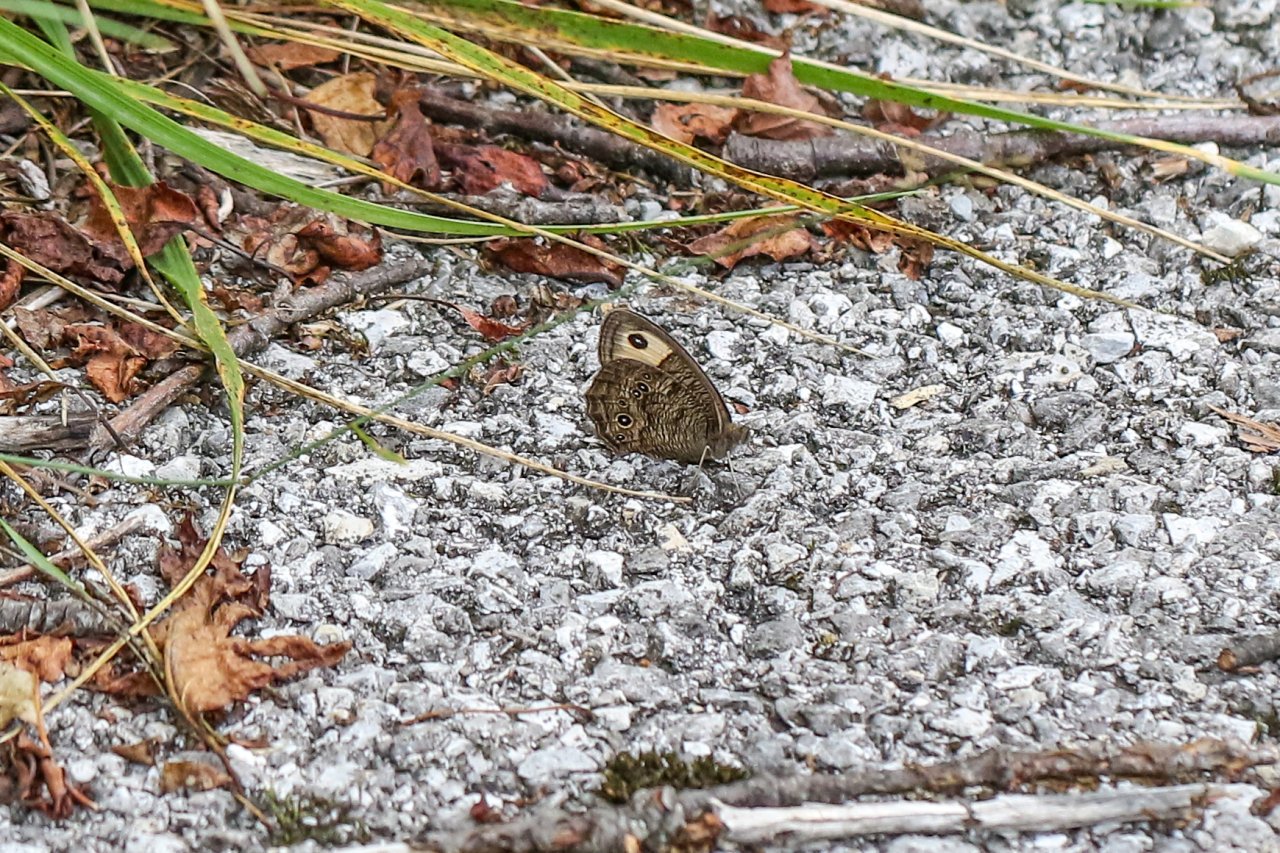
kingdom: Animalia
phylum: Arthropoda
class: Insecta
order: Lepidoptera
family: Nymphalidae
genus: Cercyonis
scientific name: Cercyonis pegala
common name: Common Wood-Nymph
